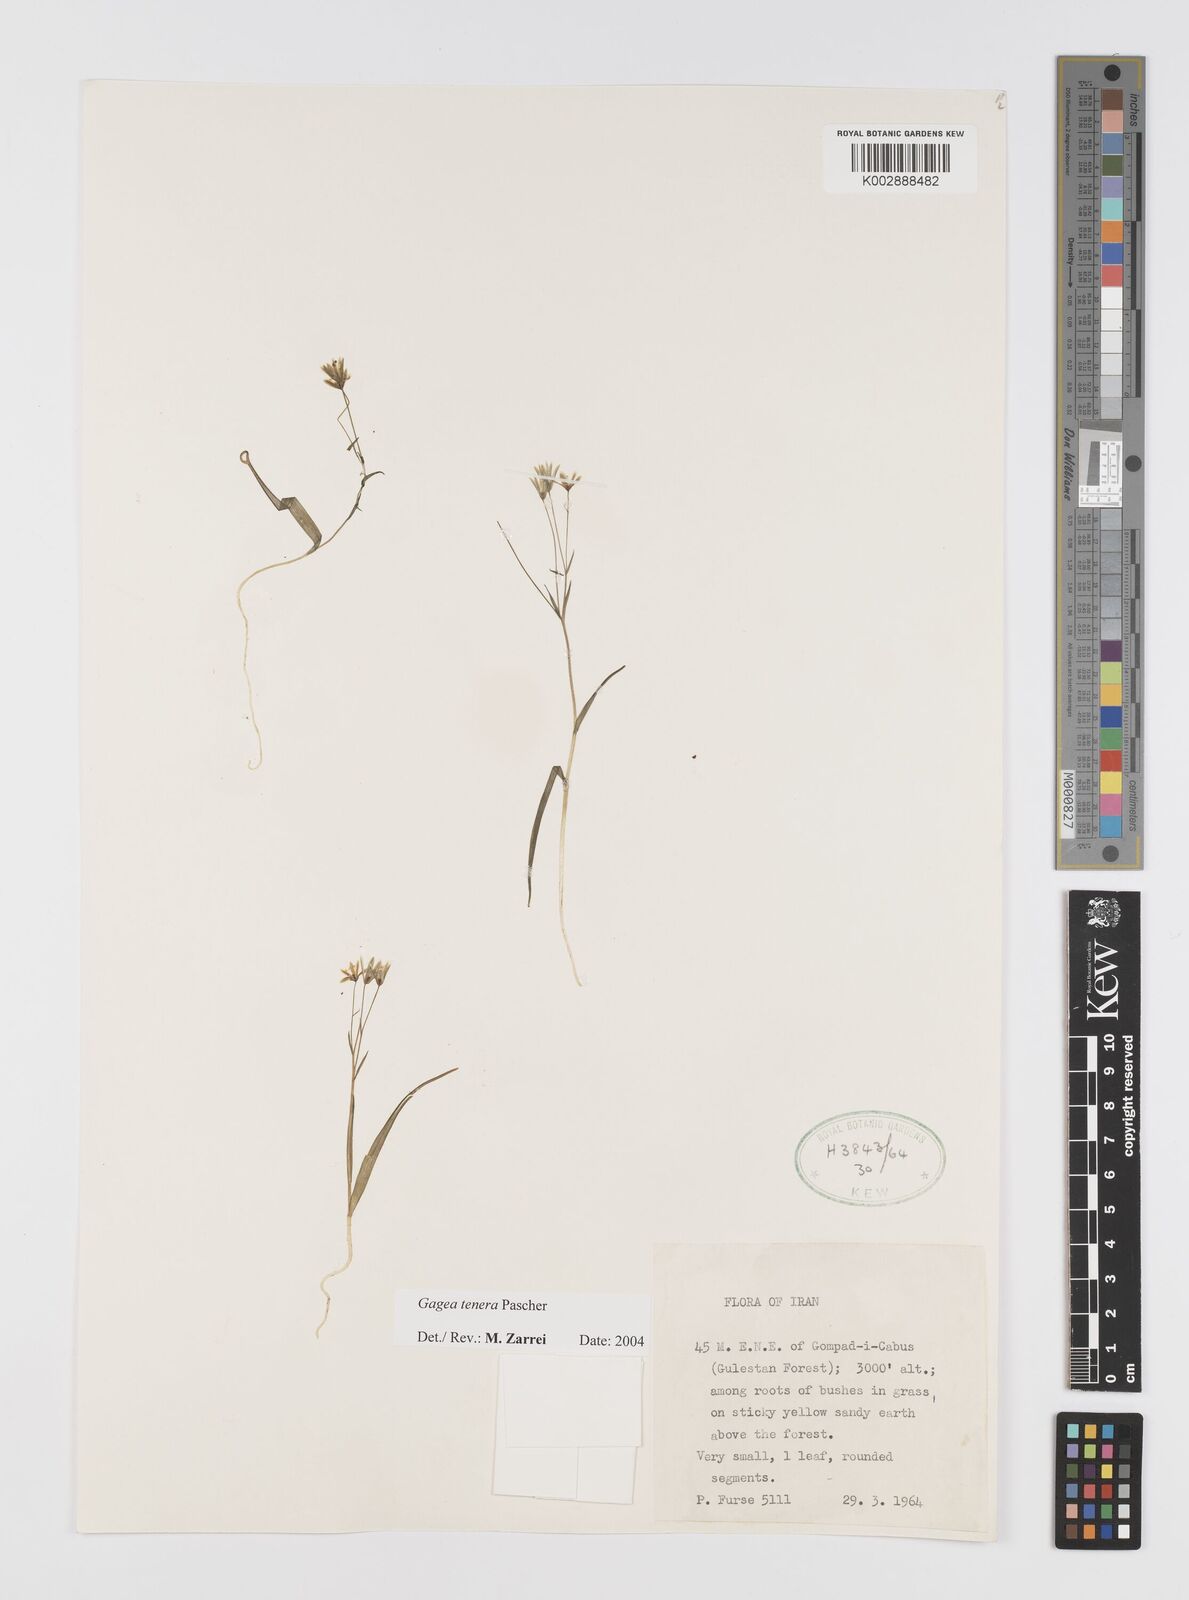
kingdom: Plantae
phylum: Tracheophyta
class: Liliopsida
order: Liliales
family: Liliaceae
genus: Gagea
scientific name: Gagea tenera
